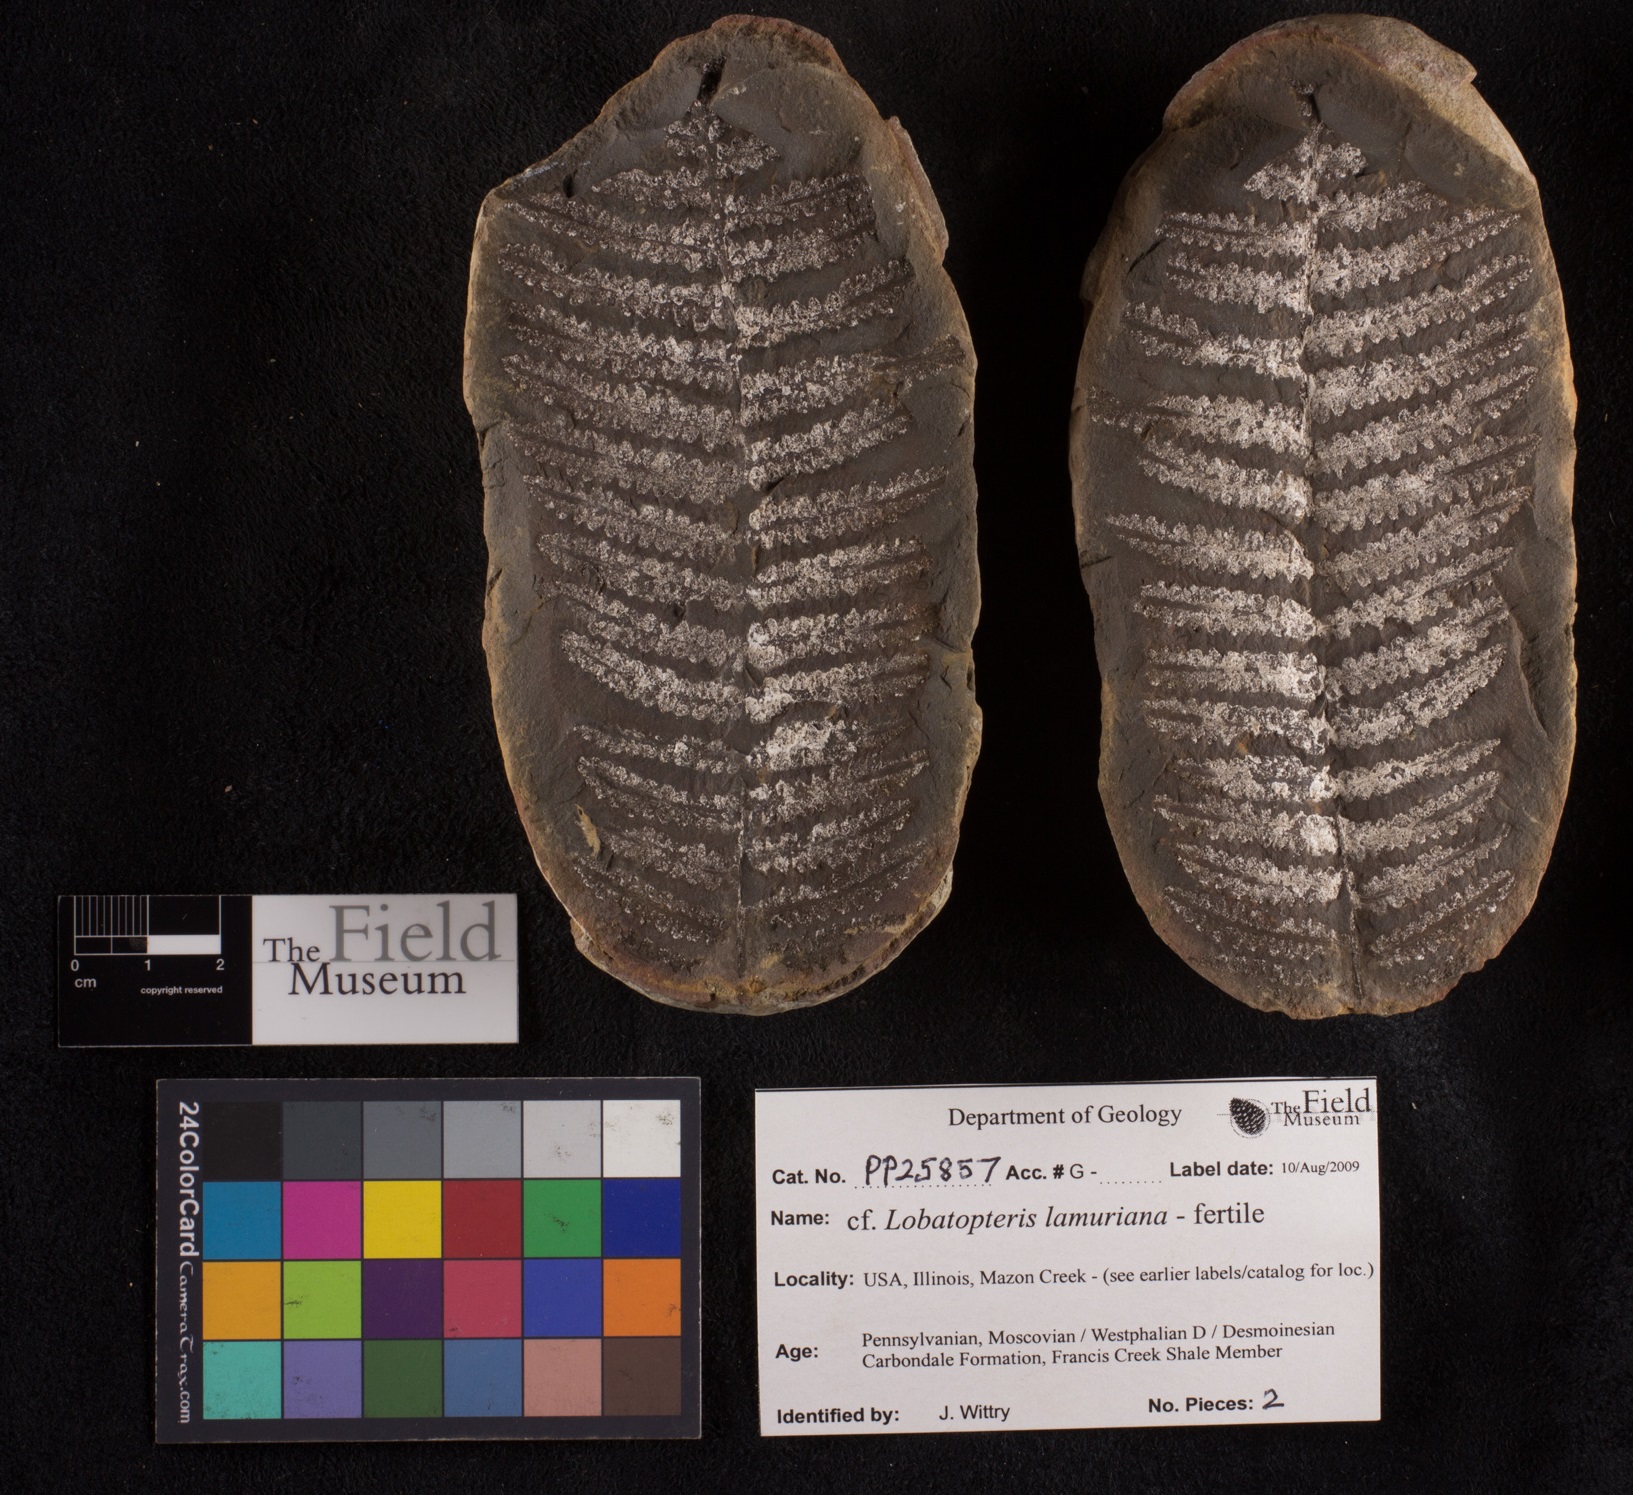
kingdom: Plantae
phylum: Tracheophyta
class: Polypodiopsida
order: Marattiales
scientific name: Marattiales
